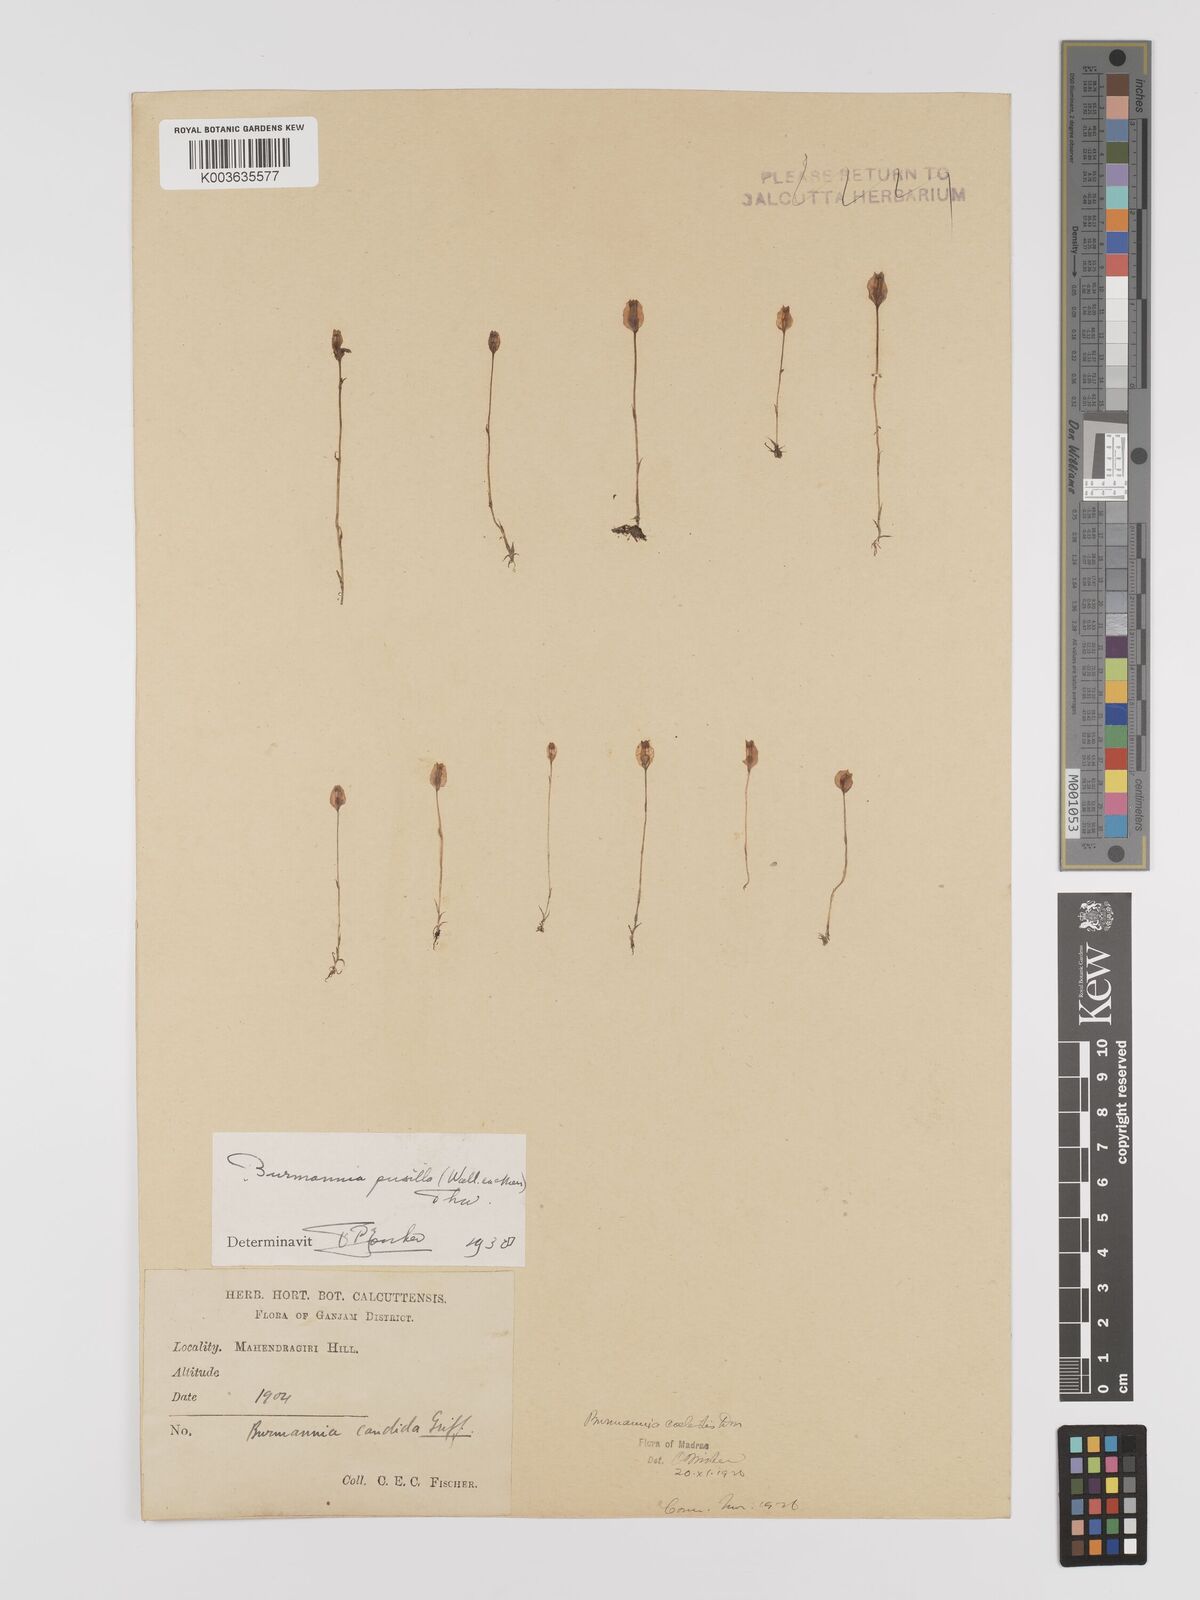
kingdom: Plantae
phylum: Tracheophyta
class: Liliopsida
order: Dioscoreales
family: Burmanniaceae
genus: Burmannia
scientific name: Burmannia pusilla
